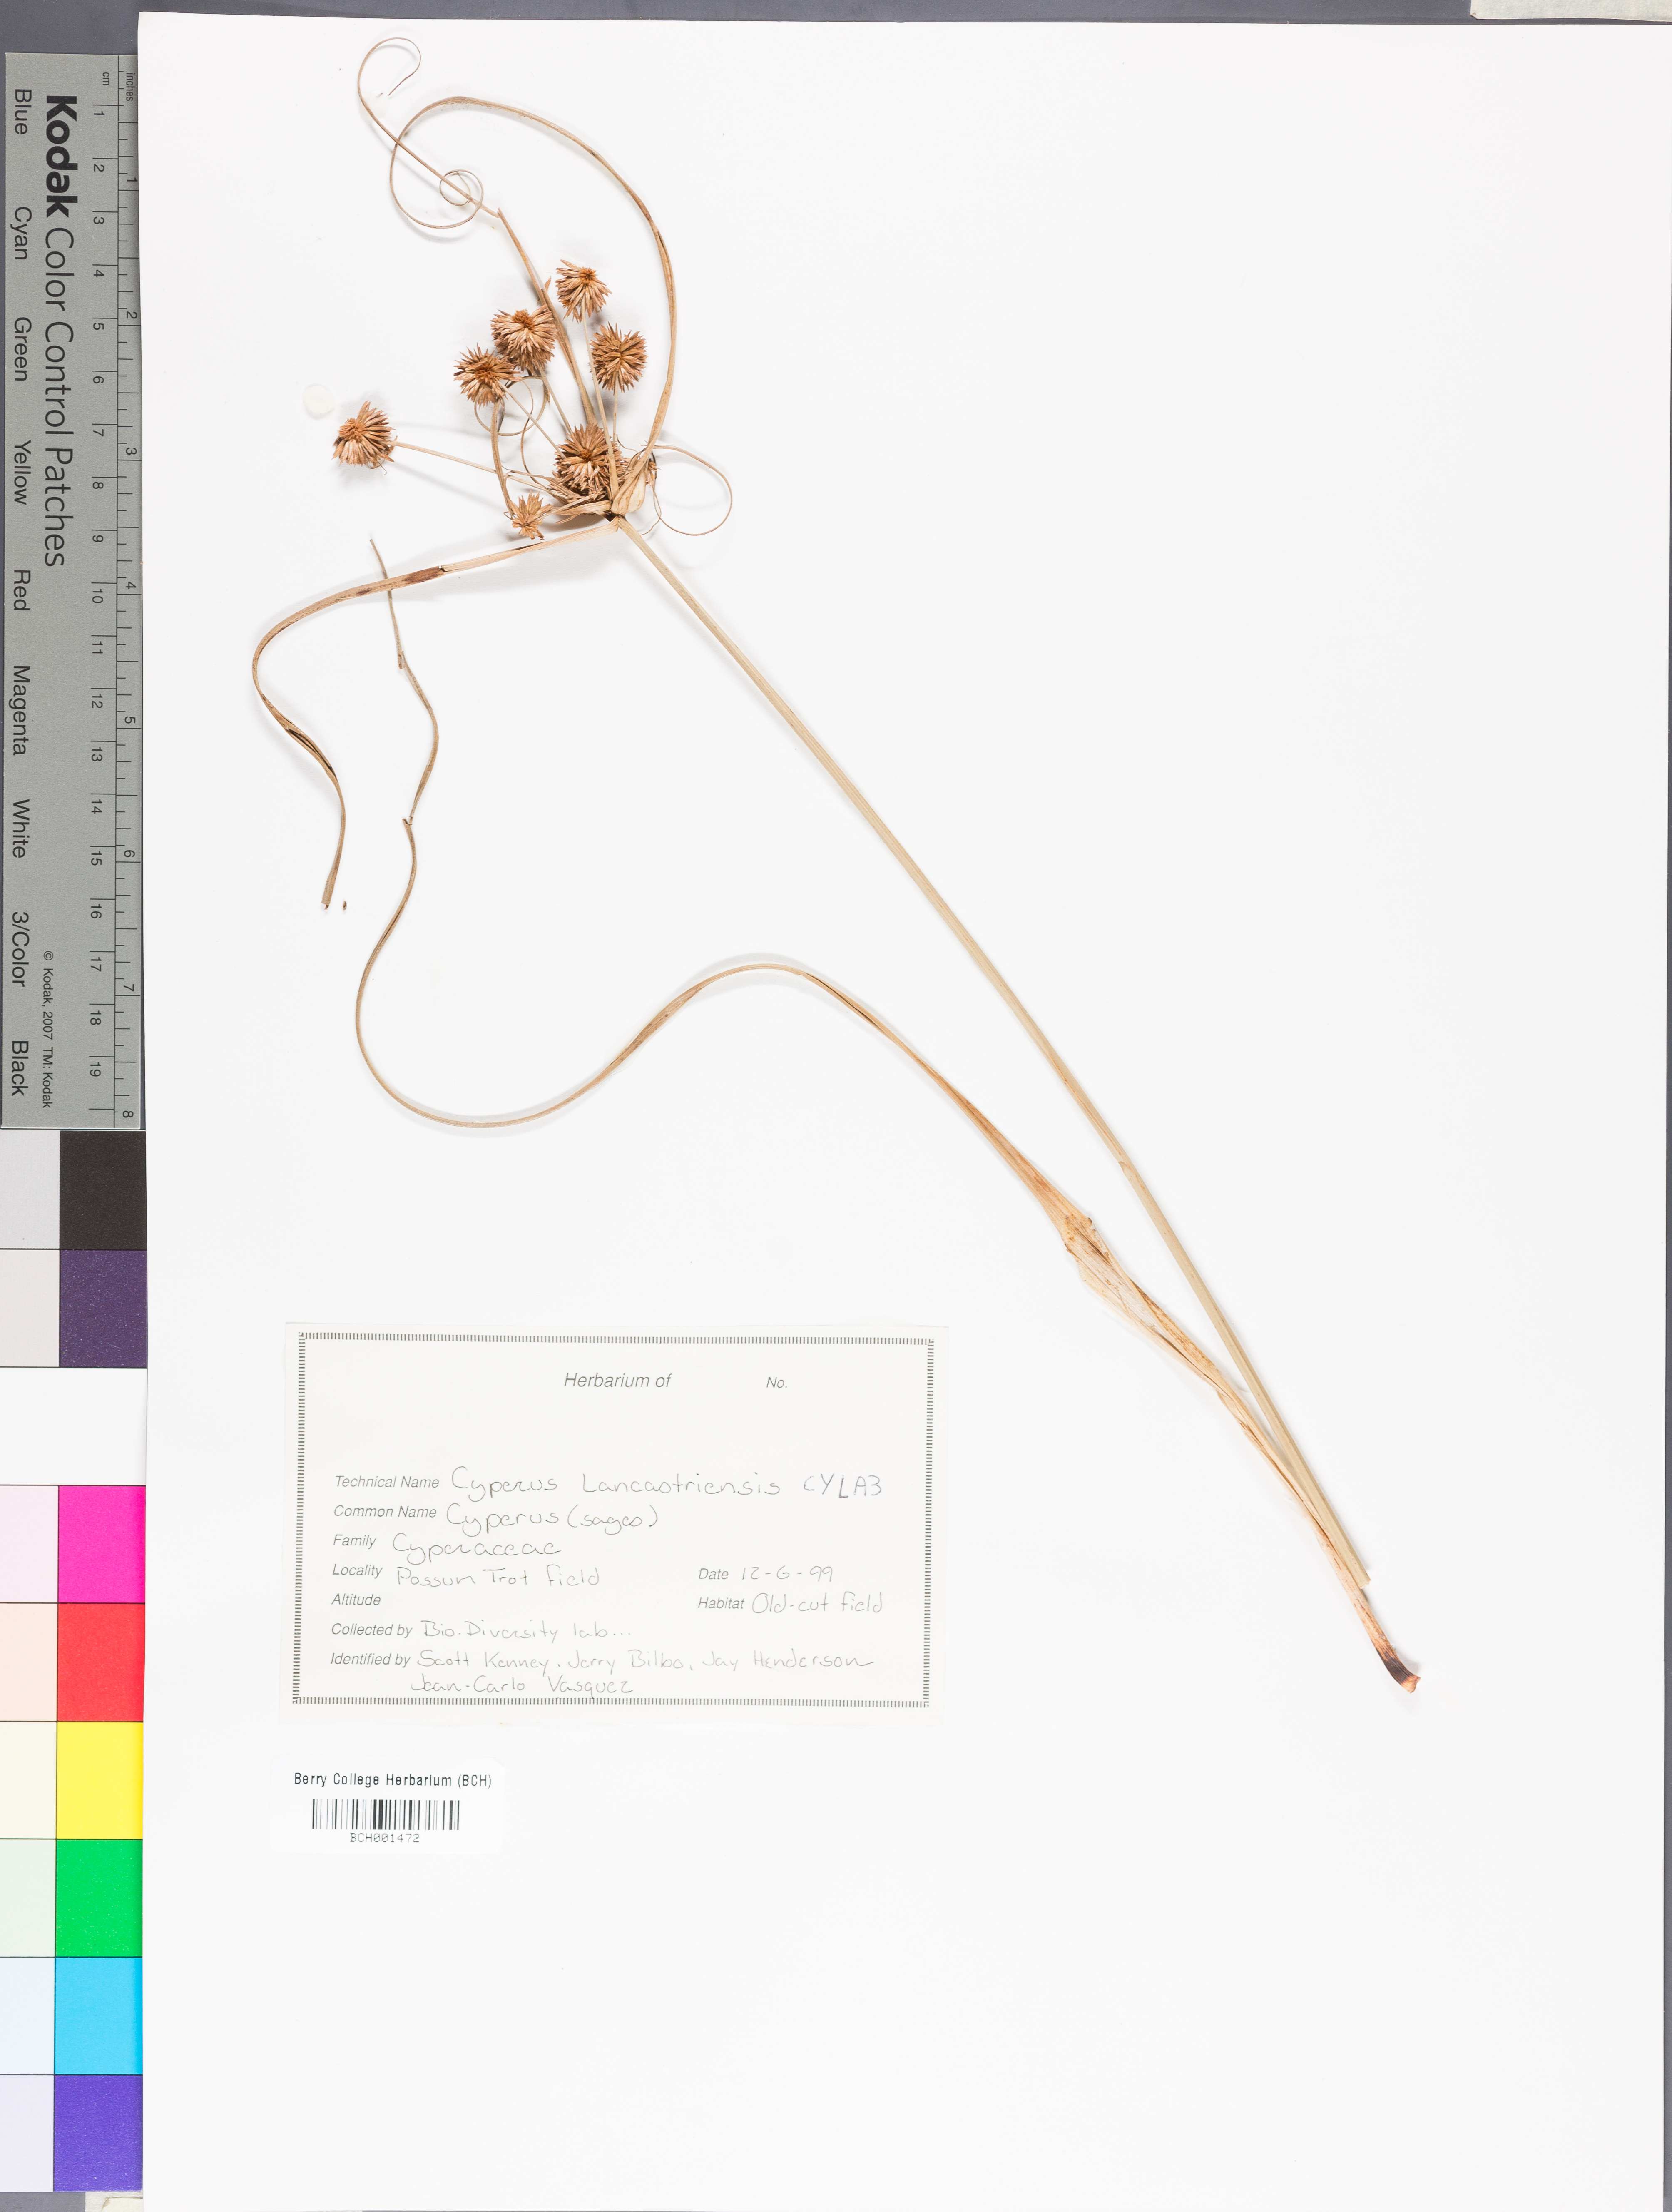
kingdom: Plantae
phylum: Tracheophyta
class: Liliopsida
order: Poales
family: Cyperaceae
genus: Cyperus
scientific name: Cyperus lancastriensis
